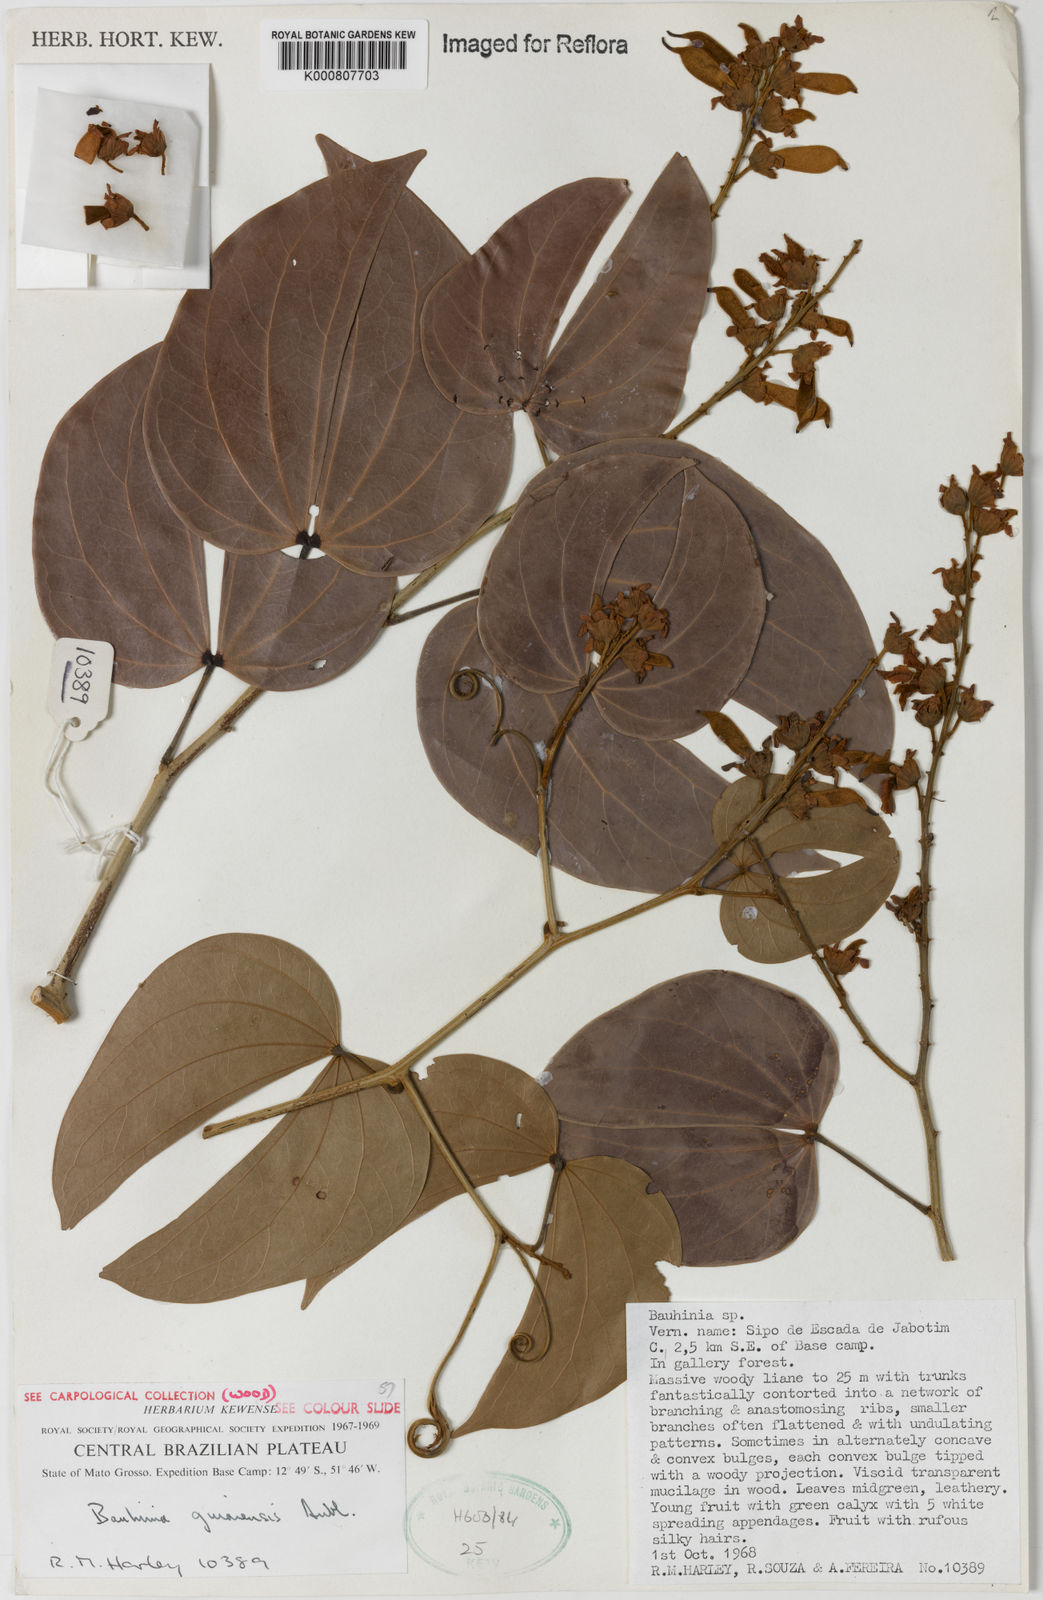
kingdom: Plantae
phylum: Tracheophyta
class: Magnoliopsida
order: Fabales
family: Fabaceae
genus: Schnella
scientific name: Schnella guianensis
